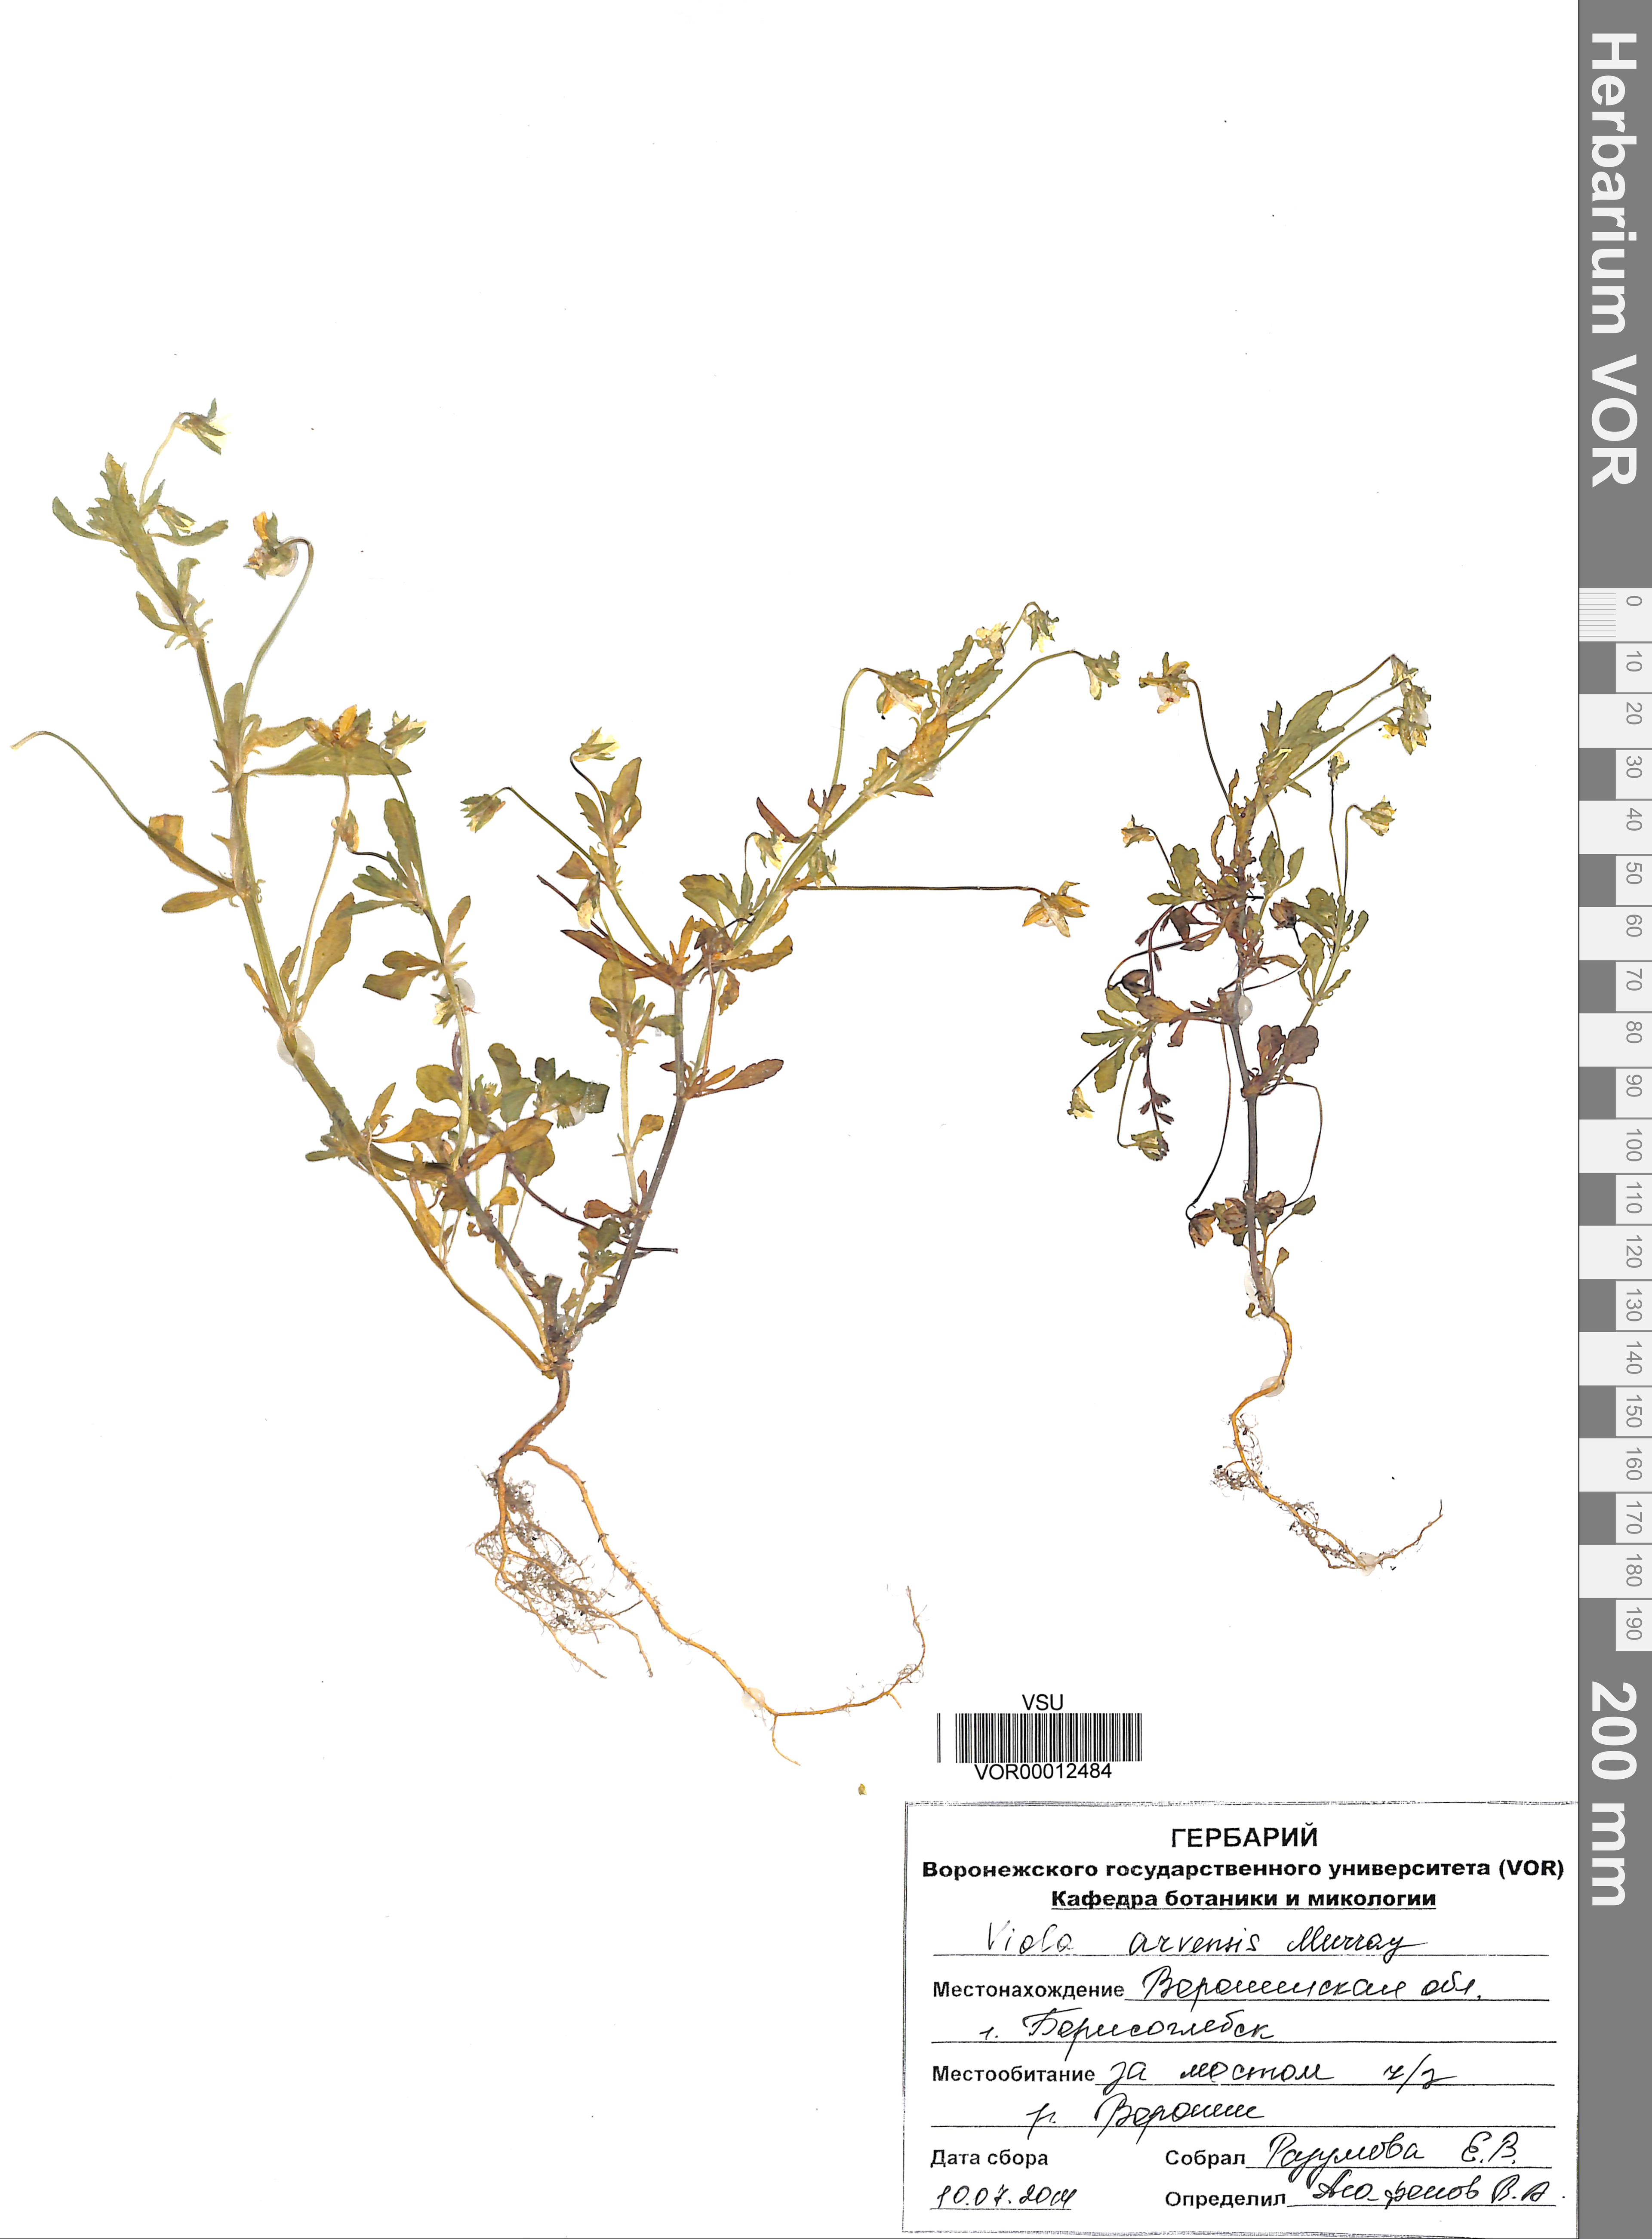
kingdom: Plantae
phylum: Tracheophyta
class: Magnoliopsida
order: Malpighiales
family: Violaceae
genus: Viola
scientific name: Viola arvensis
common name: Field pansy
